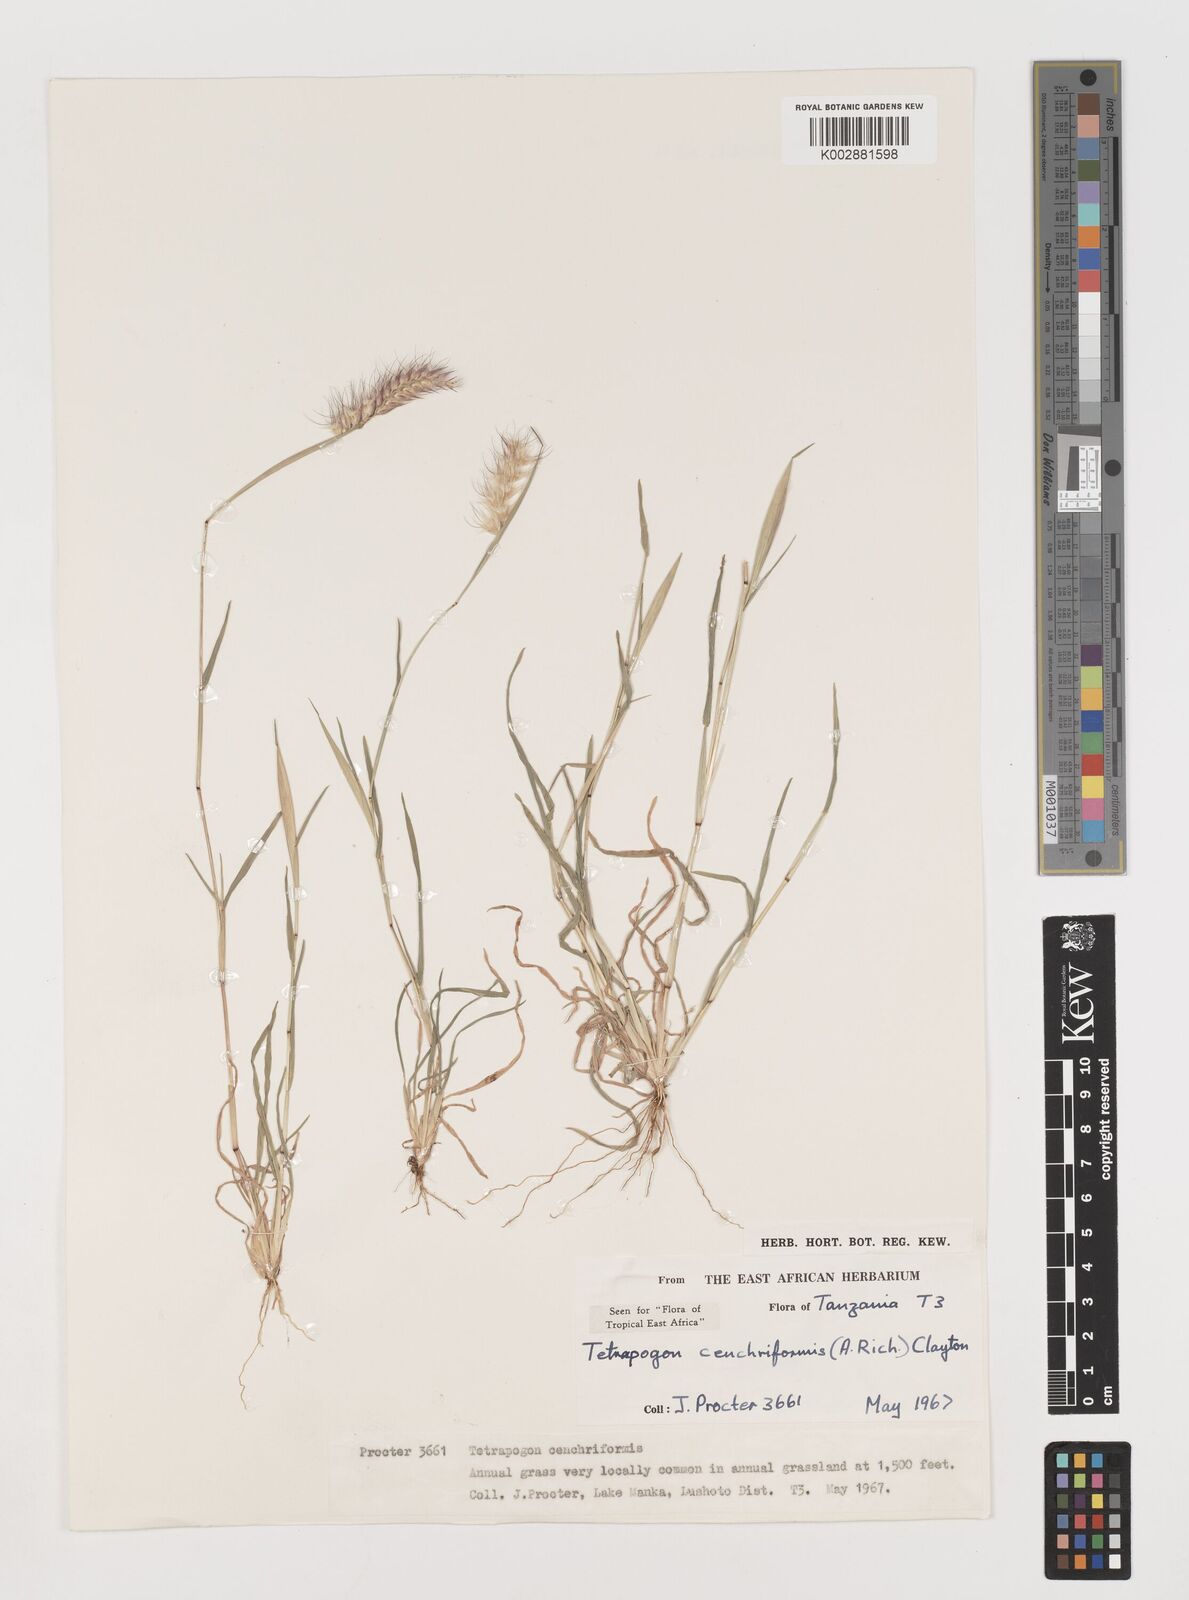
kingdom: Plantae
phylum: Tracheophyta
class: Liliopsida
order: Poales
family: Poaceae
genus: Tetrapogon
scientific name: Tetrapogon cenchriformis
